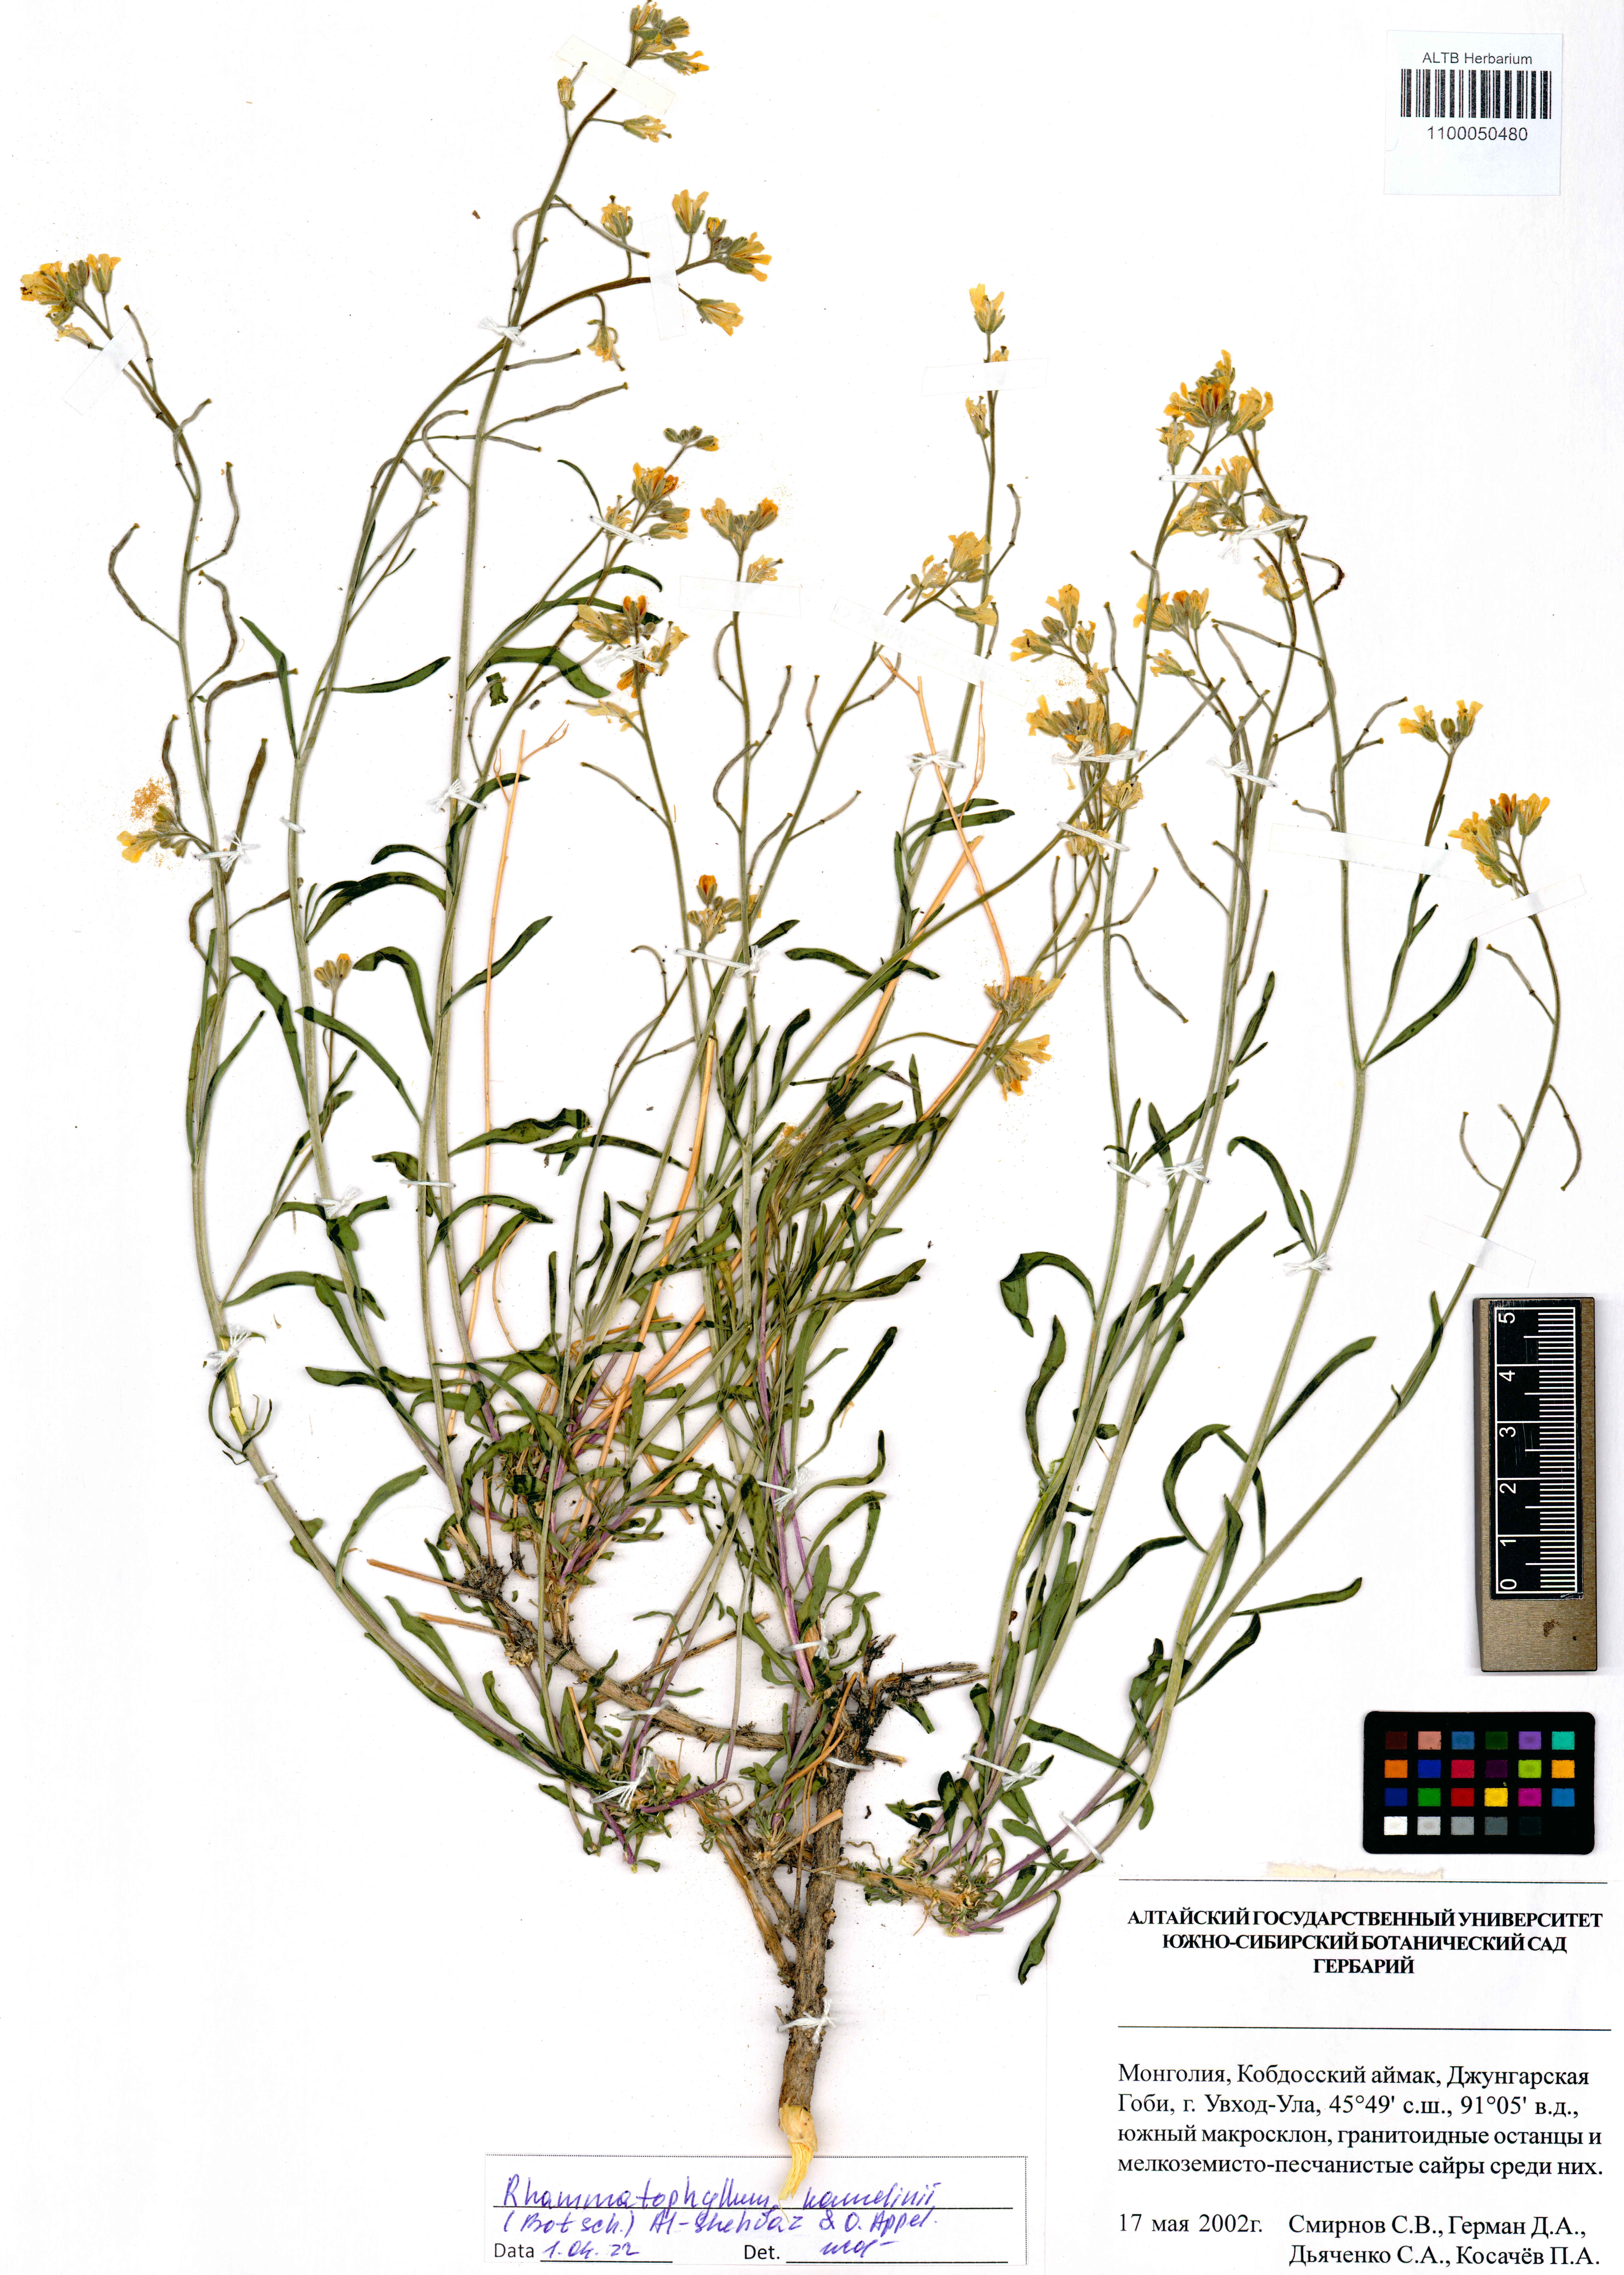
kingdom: Plantae
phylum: Tracheophyta
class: Magnoliopsida
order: Brassicales
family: Brassicaceae
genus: Rhammatophyllum
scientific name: Rhammatophyllum kamelinii
